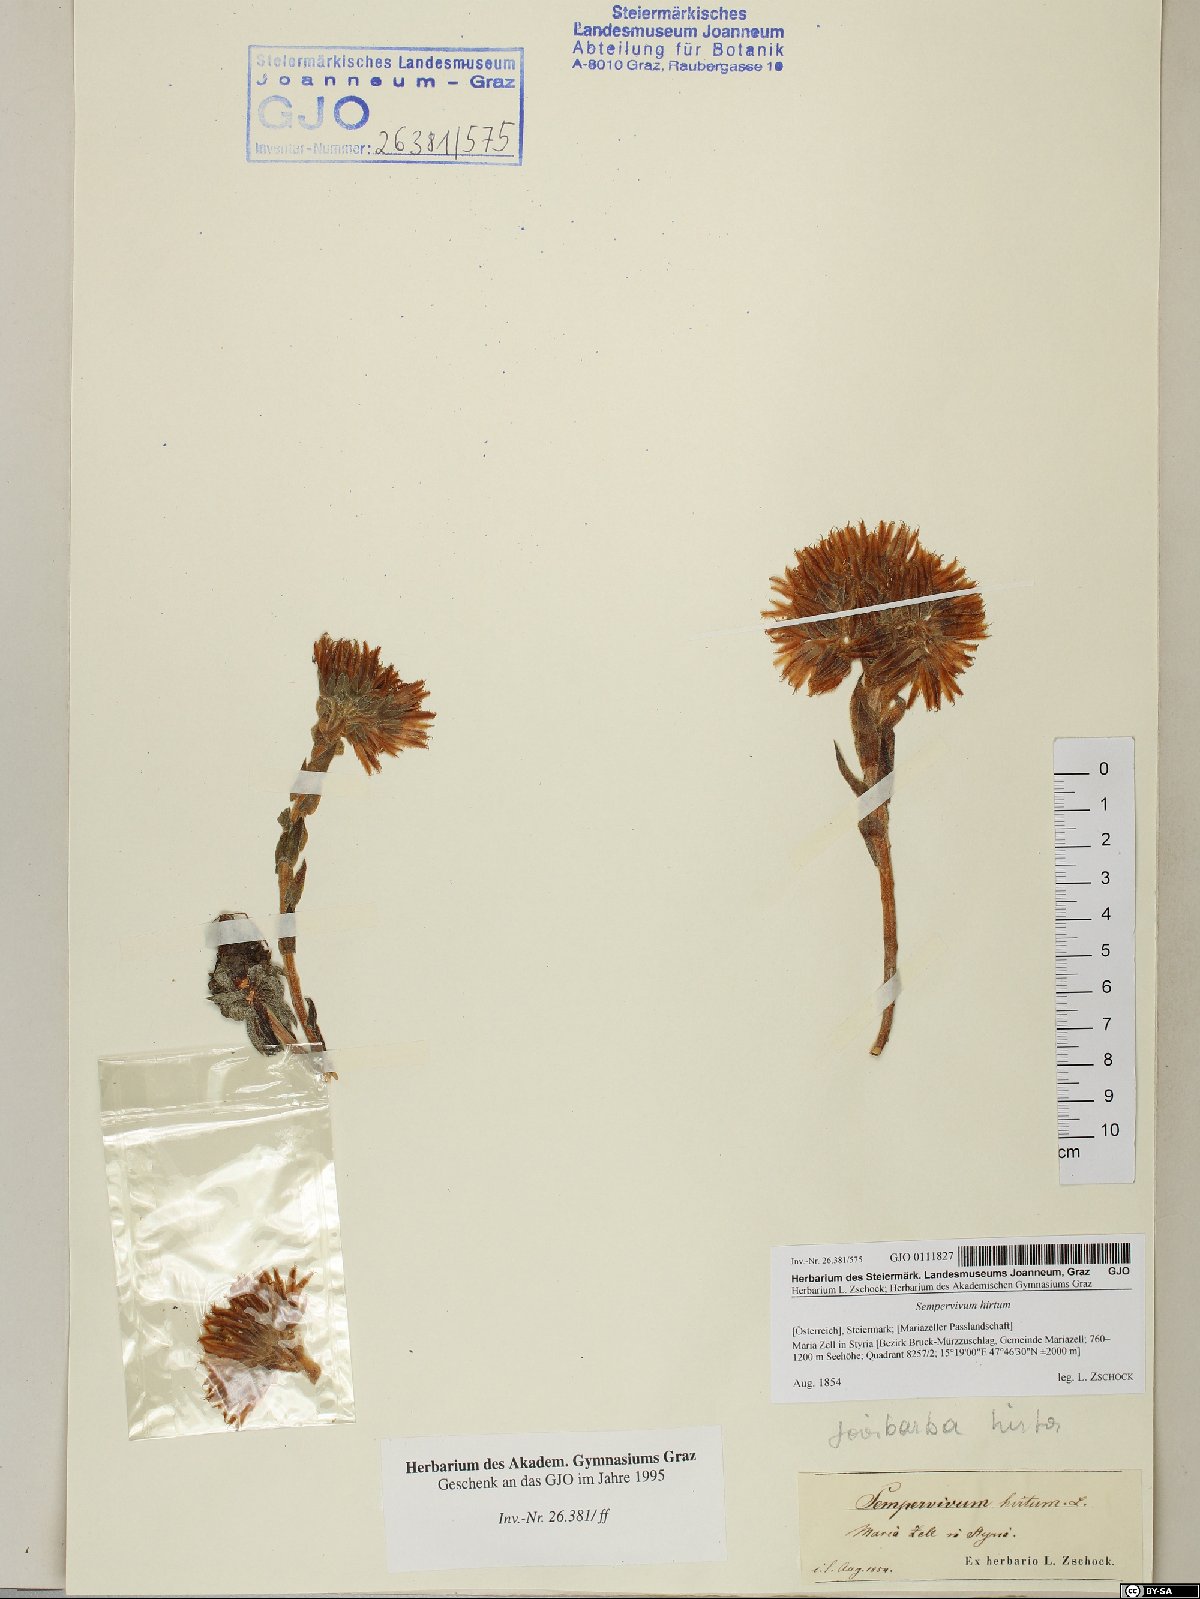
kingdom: Plantae
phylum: Tracheophyta
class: Magnoliopsida
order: Saxifragales
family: Crassulaceae
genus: Sempervivum
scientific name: Sempervivum globiferum
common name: Rolling hen-and-chicks
